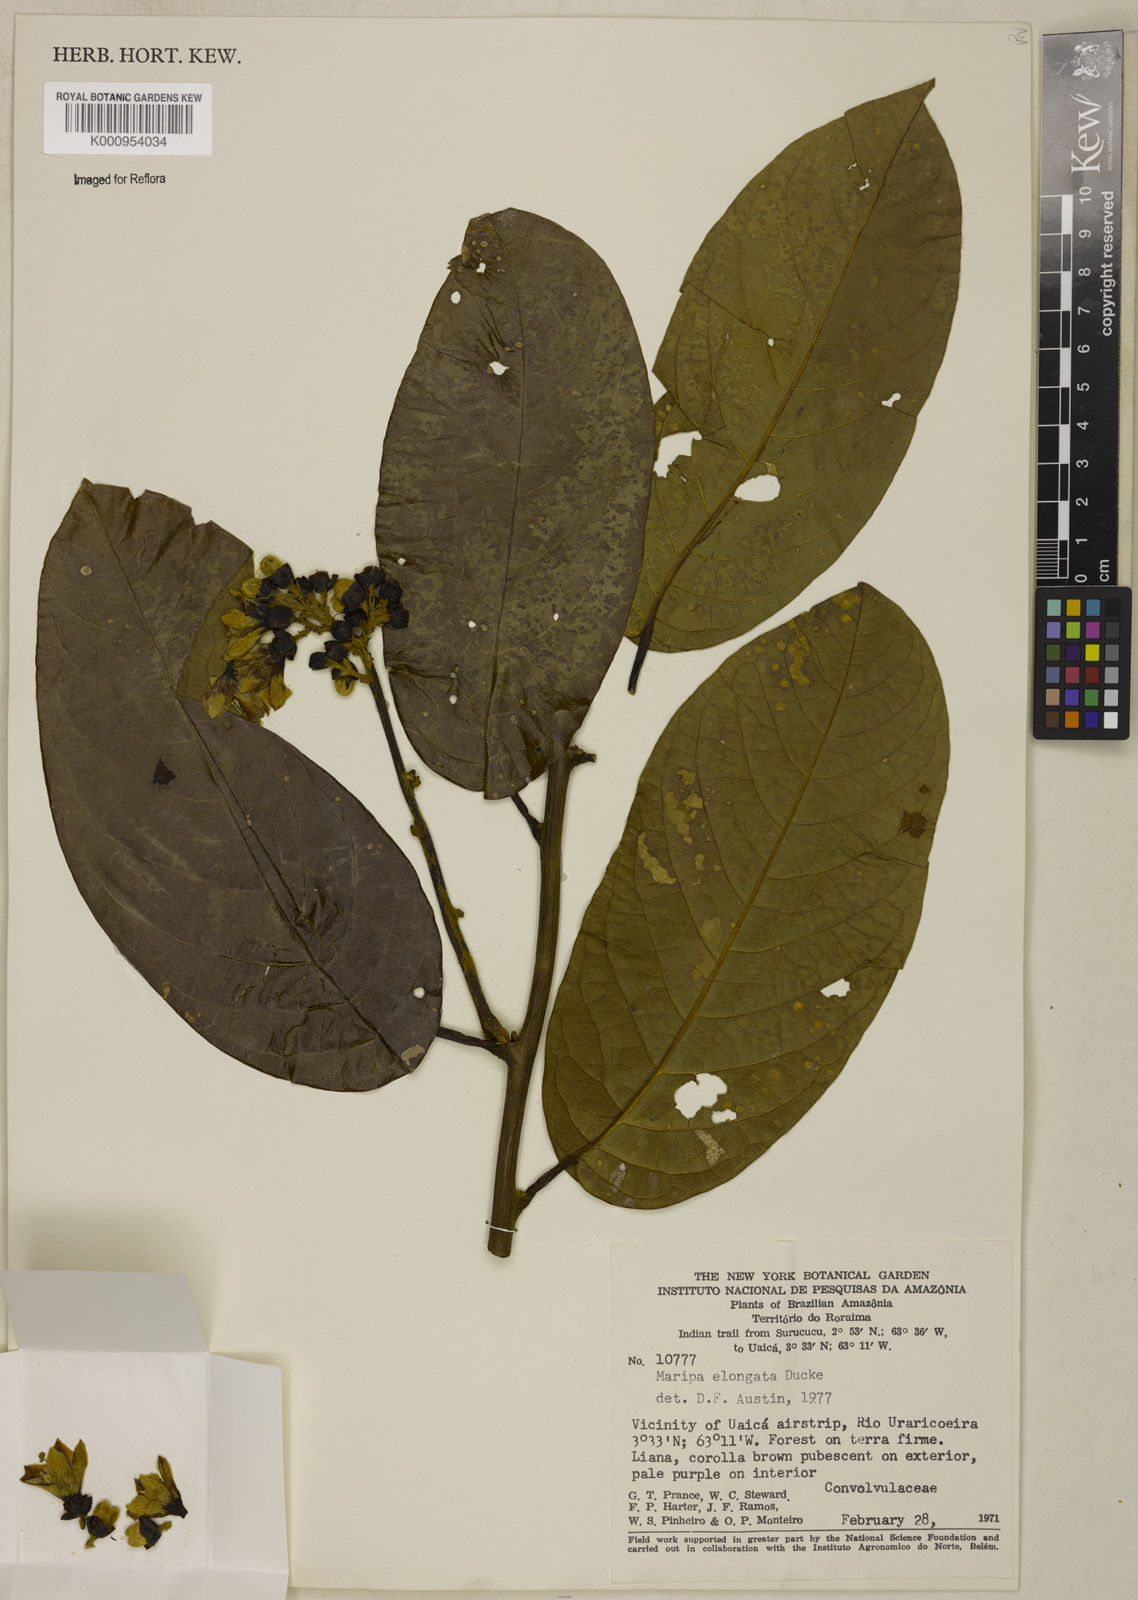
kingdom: Plantae
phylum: Tracheophyta
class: Magnoliopsida
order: Solanales
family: Convolvulaceae
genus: Maripa
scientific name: Maripa elongata
